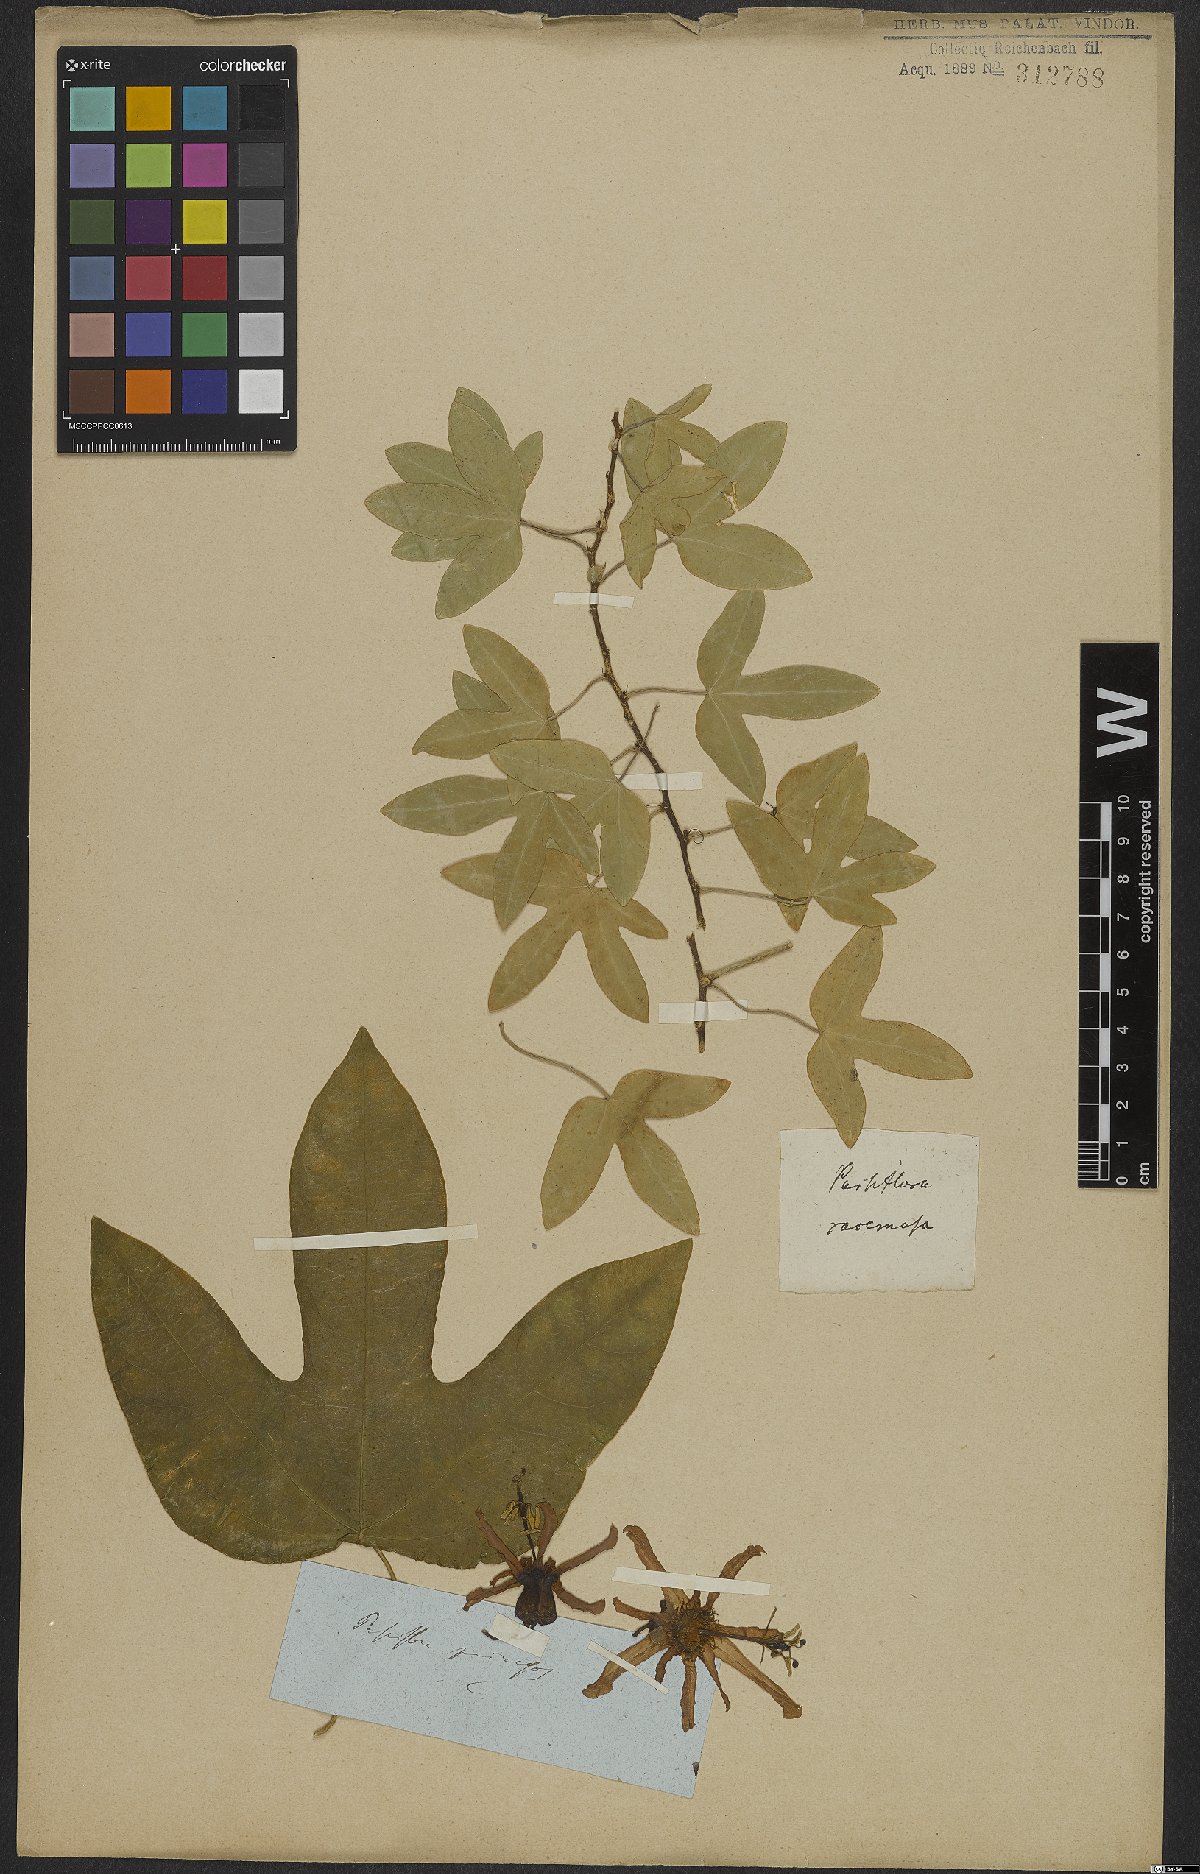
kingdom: Plantae
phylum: Tracheophyta
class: Magnoliopsida
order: Malpighiales
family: Passifloraceae
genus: Passiflora
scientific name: Passiflora racemosa
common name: Red passionflower
